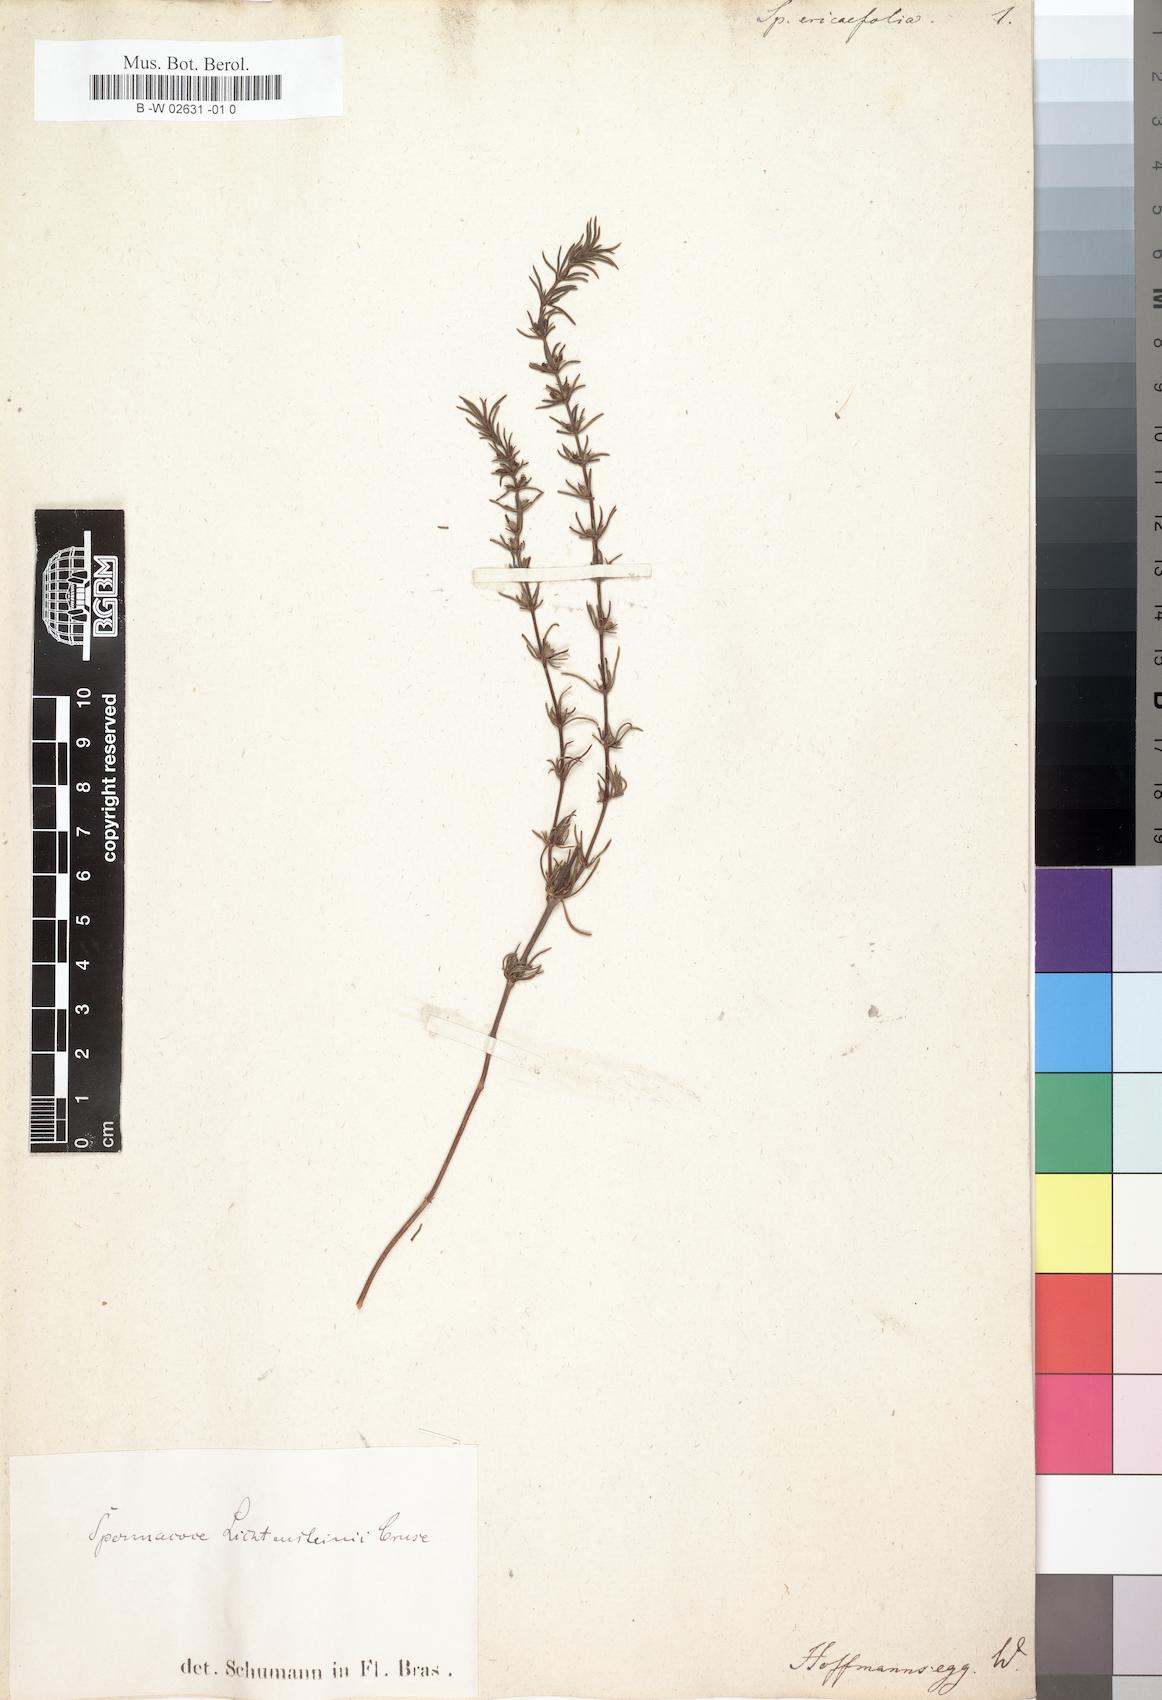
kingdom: Plantae
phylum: Tracheophyta
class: Magnoliopsida
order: Gentianales
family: Rubiaceae
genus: Anthospermum
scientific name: Anthospermum ericifolium
